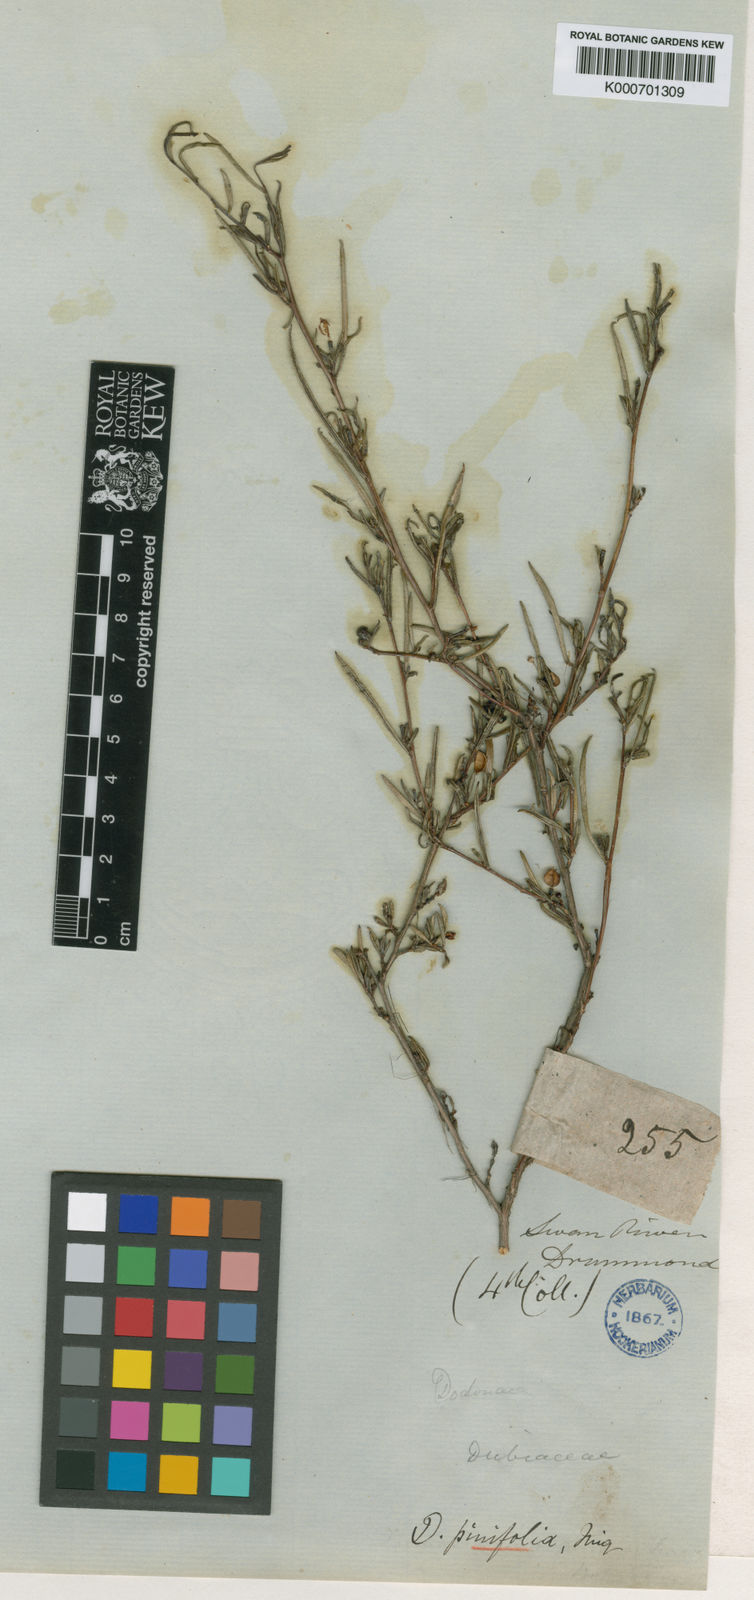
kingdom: Plantae
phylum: Tracheophyta
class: Magnoliopsida
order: Sapindales
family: Sapindaceae
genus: Dodonaea
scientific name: Dodonaea pinifolia
